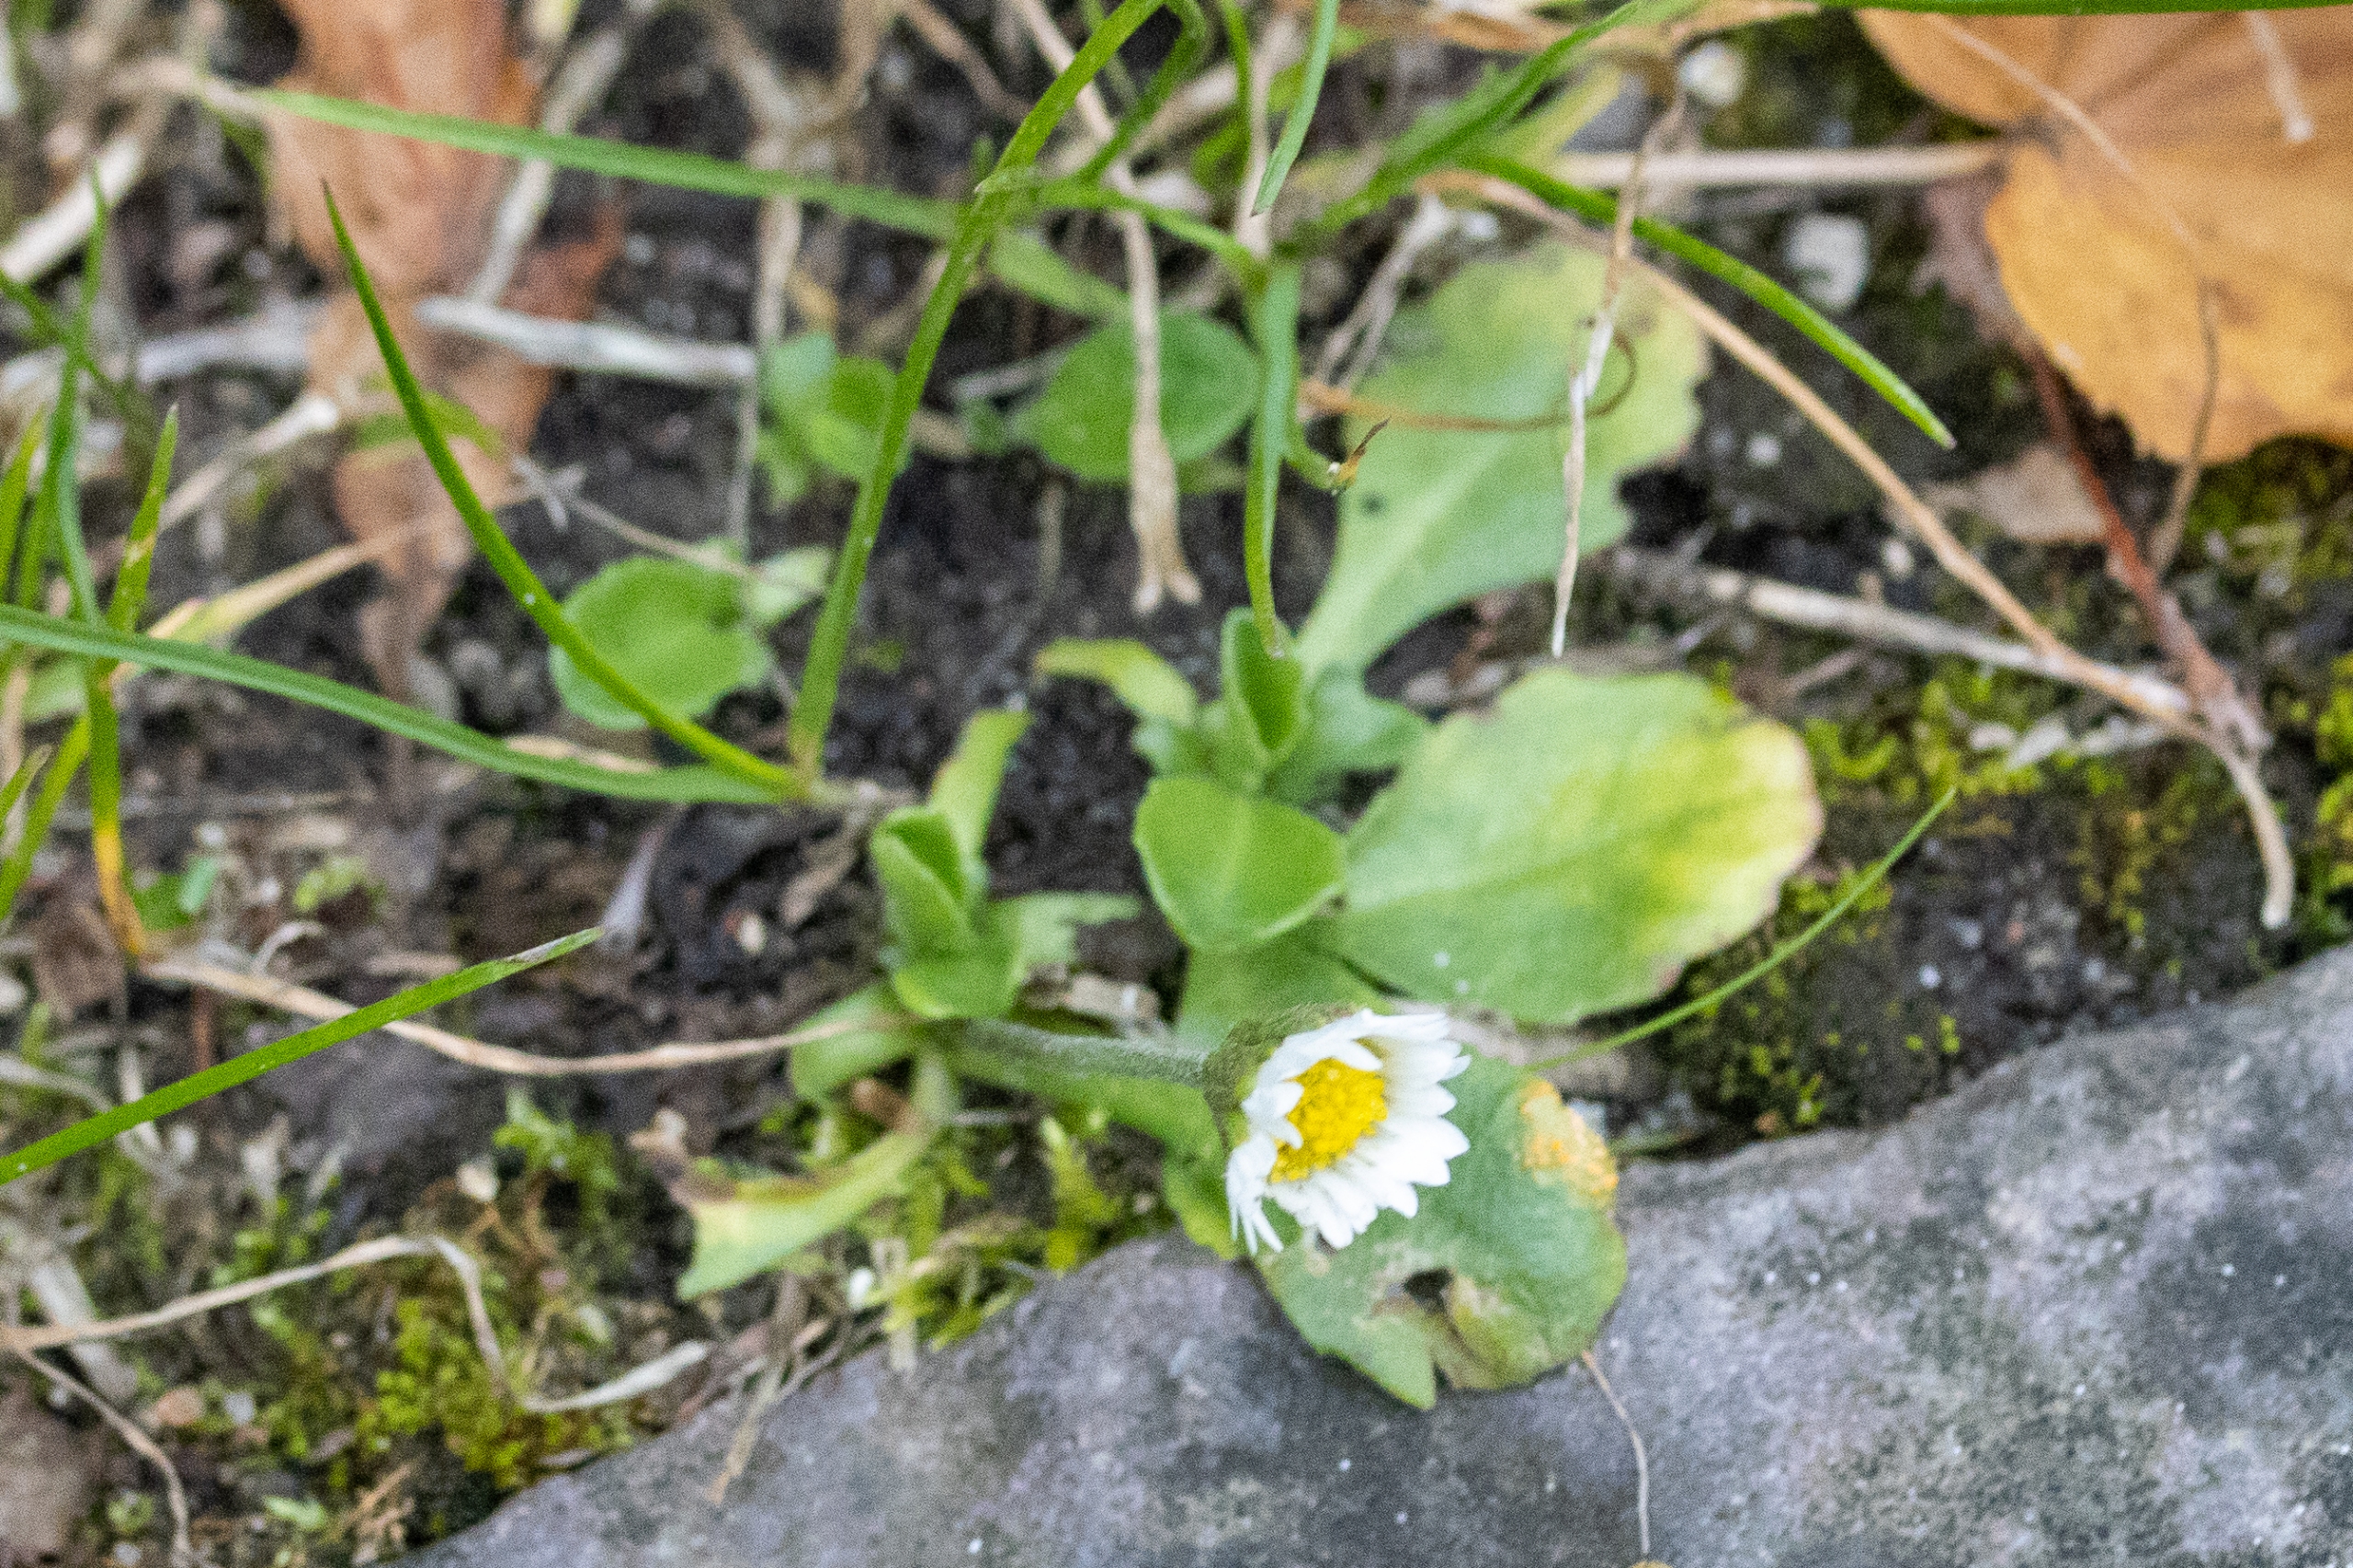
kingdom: Plantae
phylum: Tracheophyta
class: Magnoliopsida
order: Asterales
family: Asteraceae
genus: Bellis
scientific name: Bellis perennis
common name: Tusindfryd
